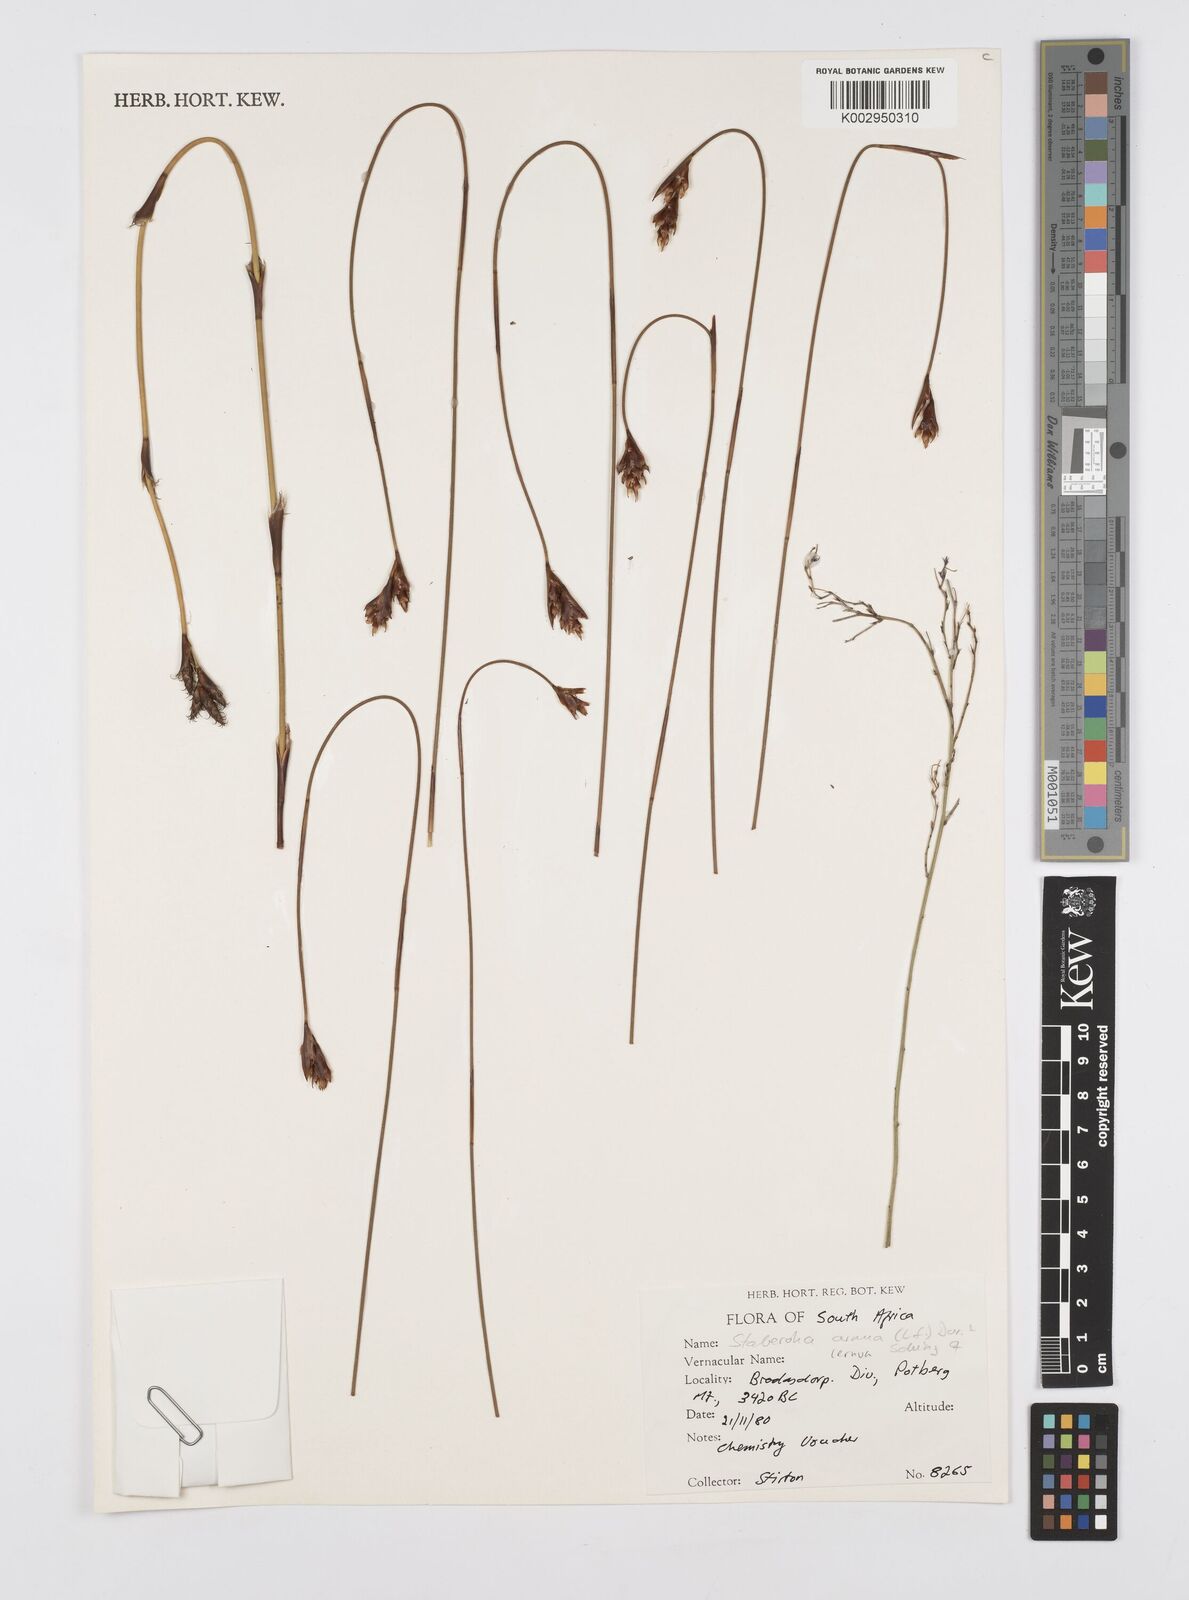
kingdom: Plantae
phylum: Tracheophyta
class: Liliopsida
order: Poales
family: Restionaceae
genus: Staberoha
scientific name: Staberoha cernua
